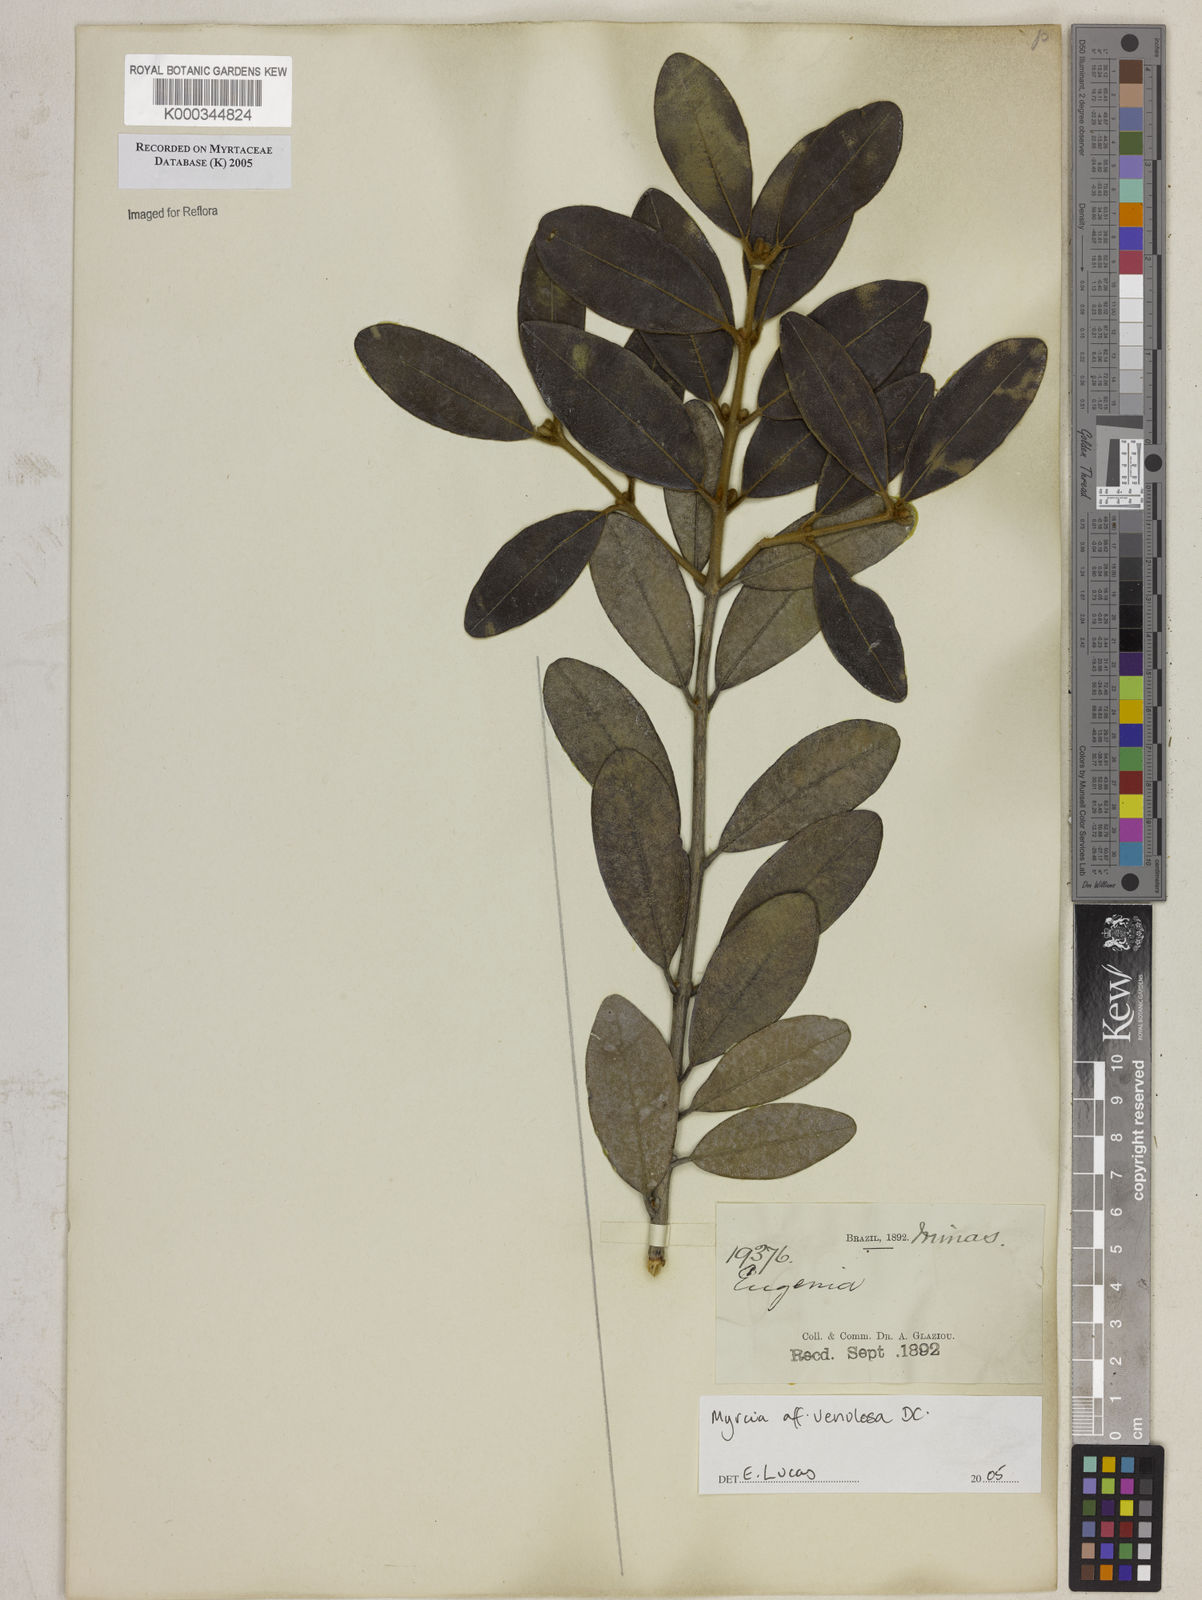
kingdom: Plantae
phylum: Tracheophyta
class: Magnoliopsida
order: Myrtales
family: Myrtaceae
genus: Myrcia
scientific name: Myrcia venulosa
